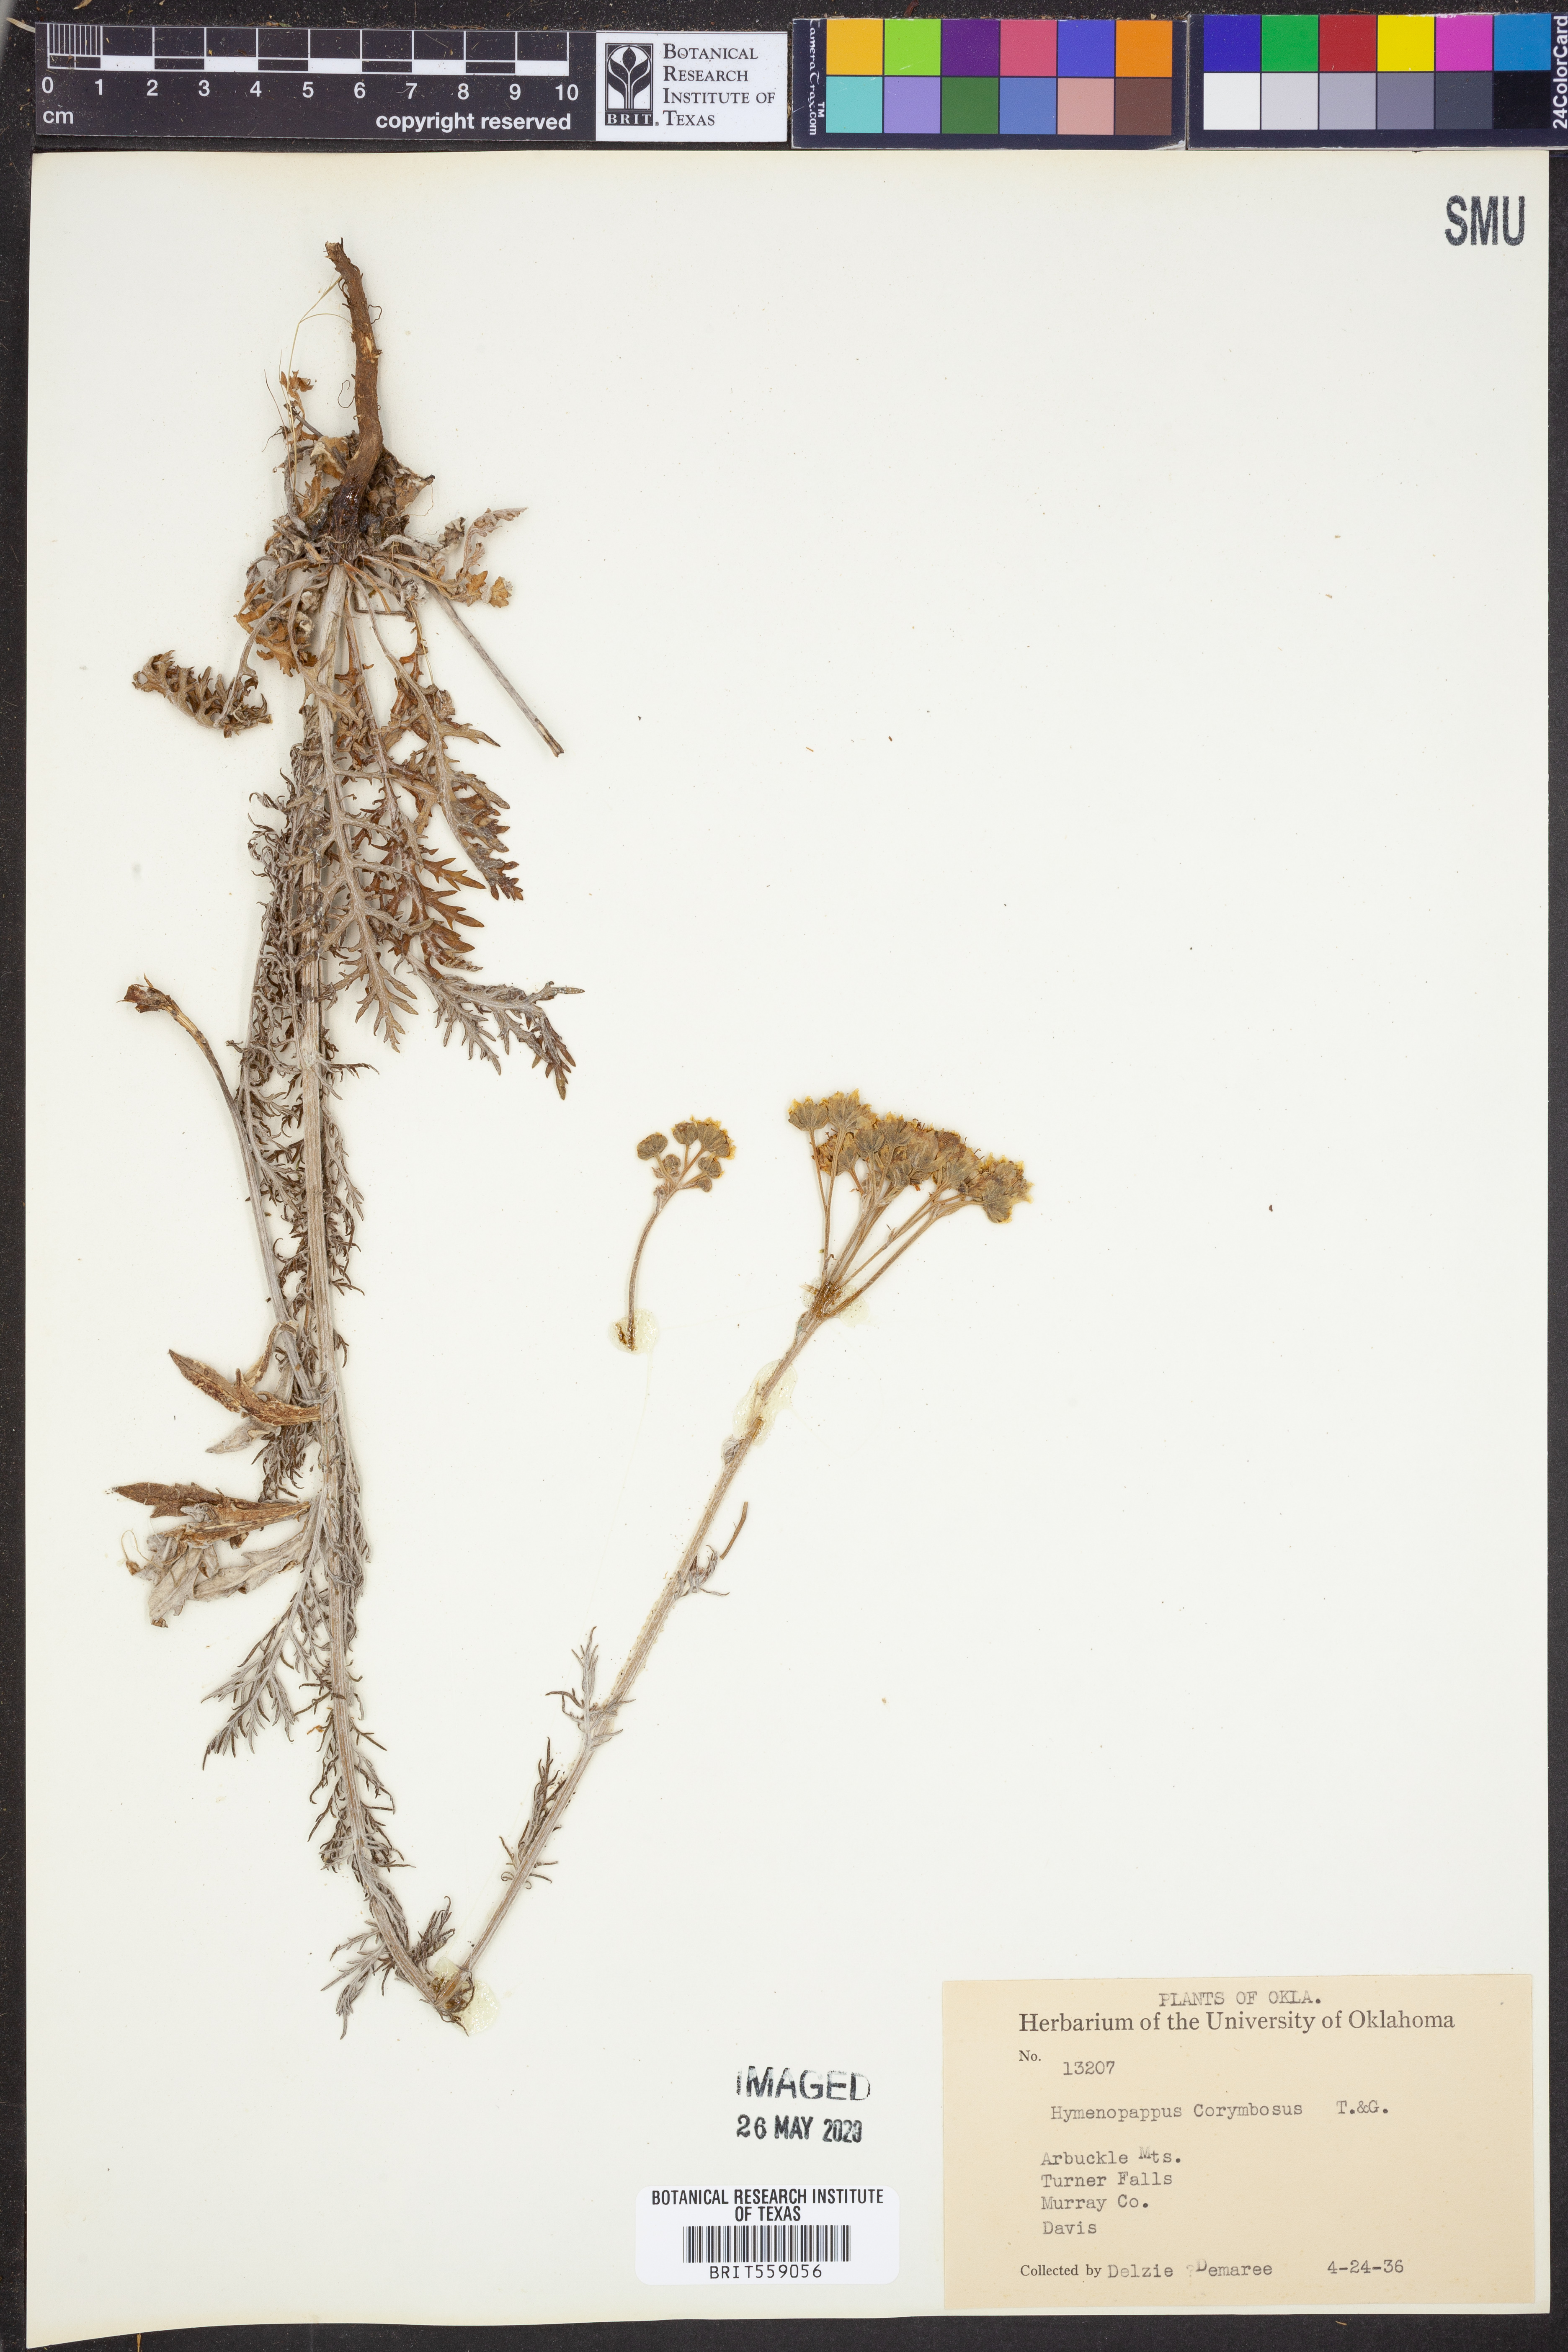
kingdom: Plantae
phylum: Tracheophyta
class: Magnoliopsida
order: Asterales
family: Asteraceae
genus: Hymenopappus
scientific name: Hymenopappus scabiosaeus
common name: Carolina woollywhite
